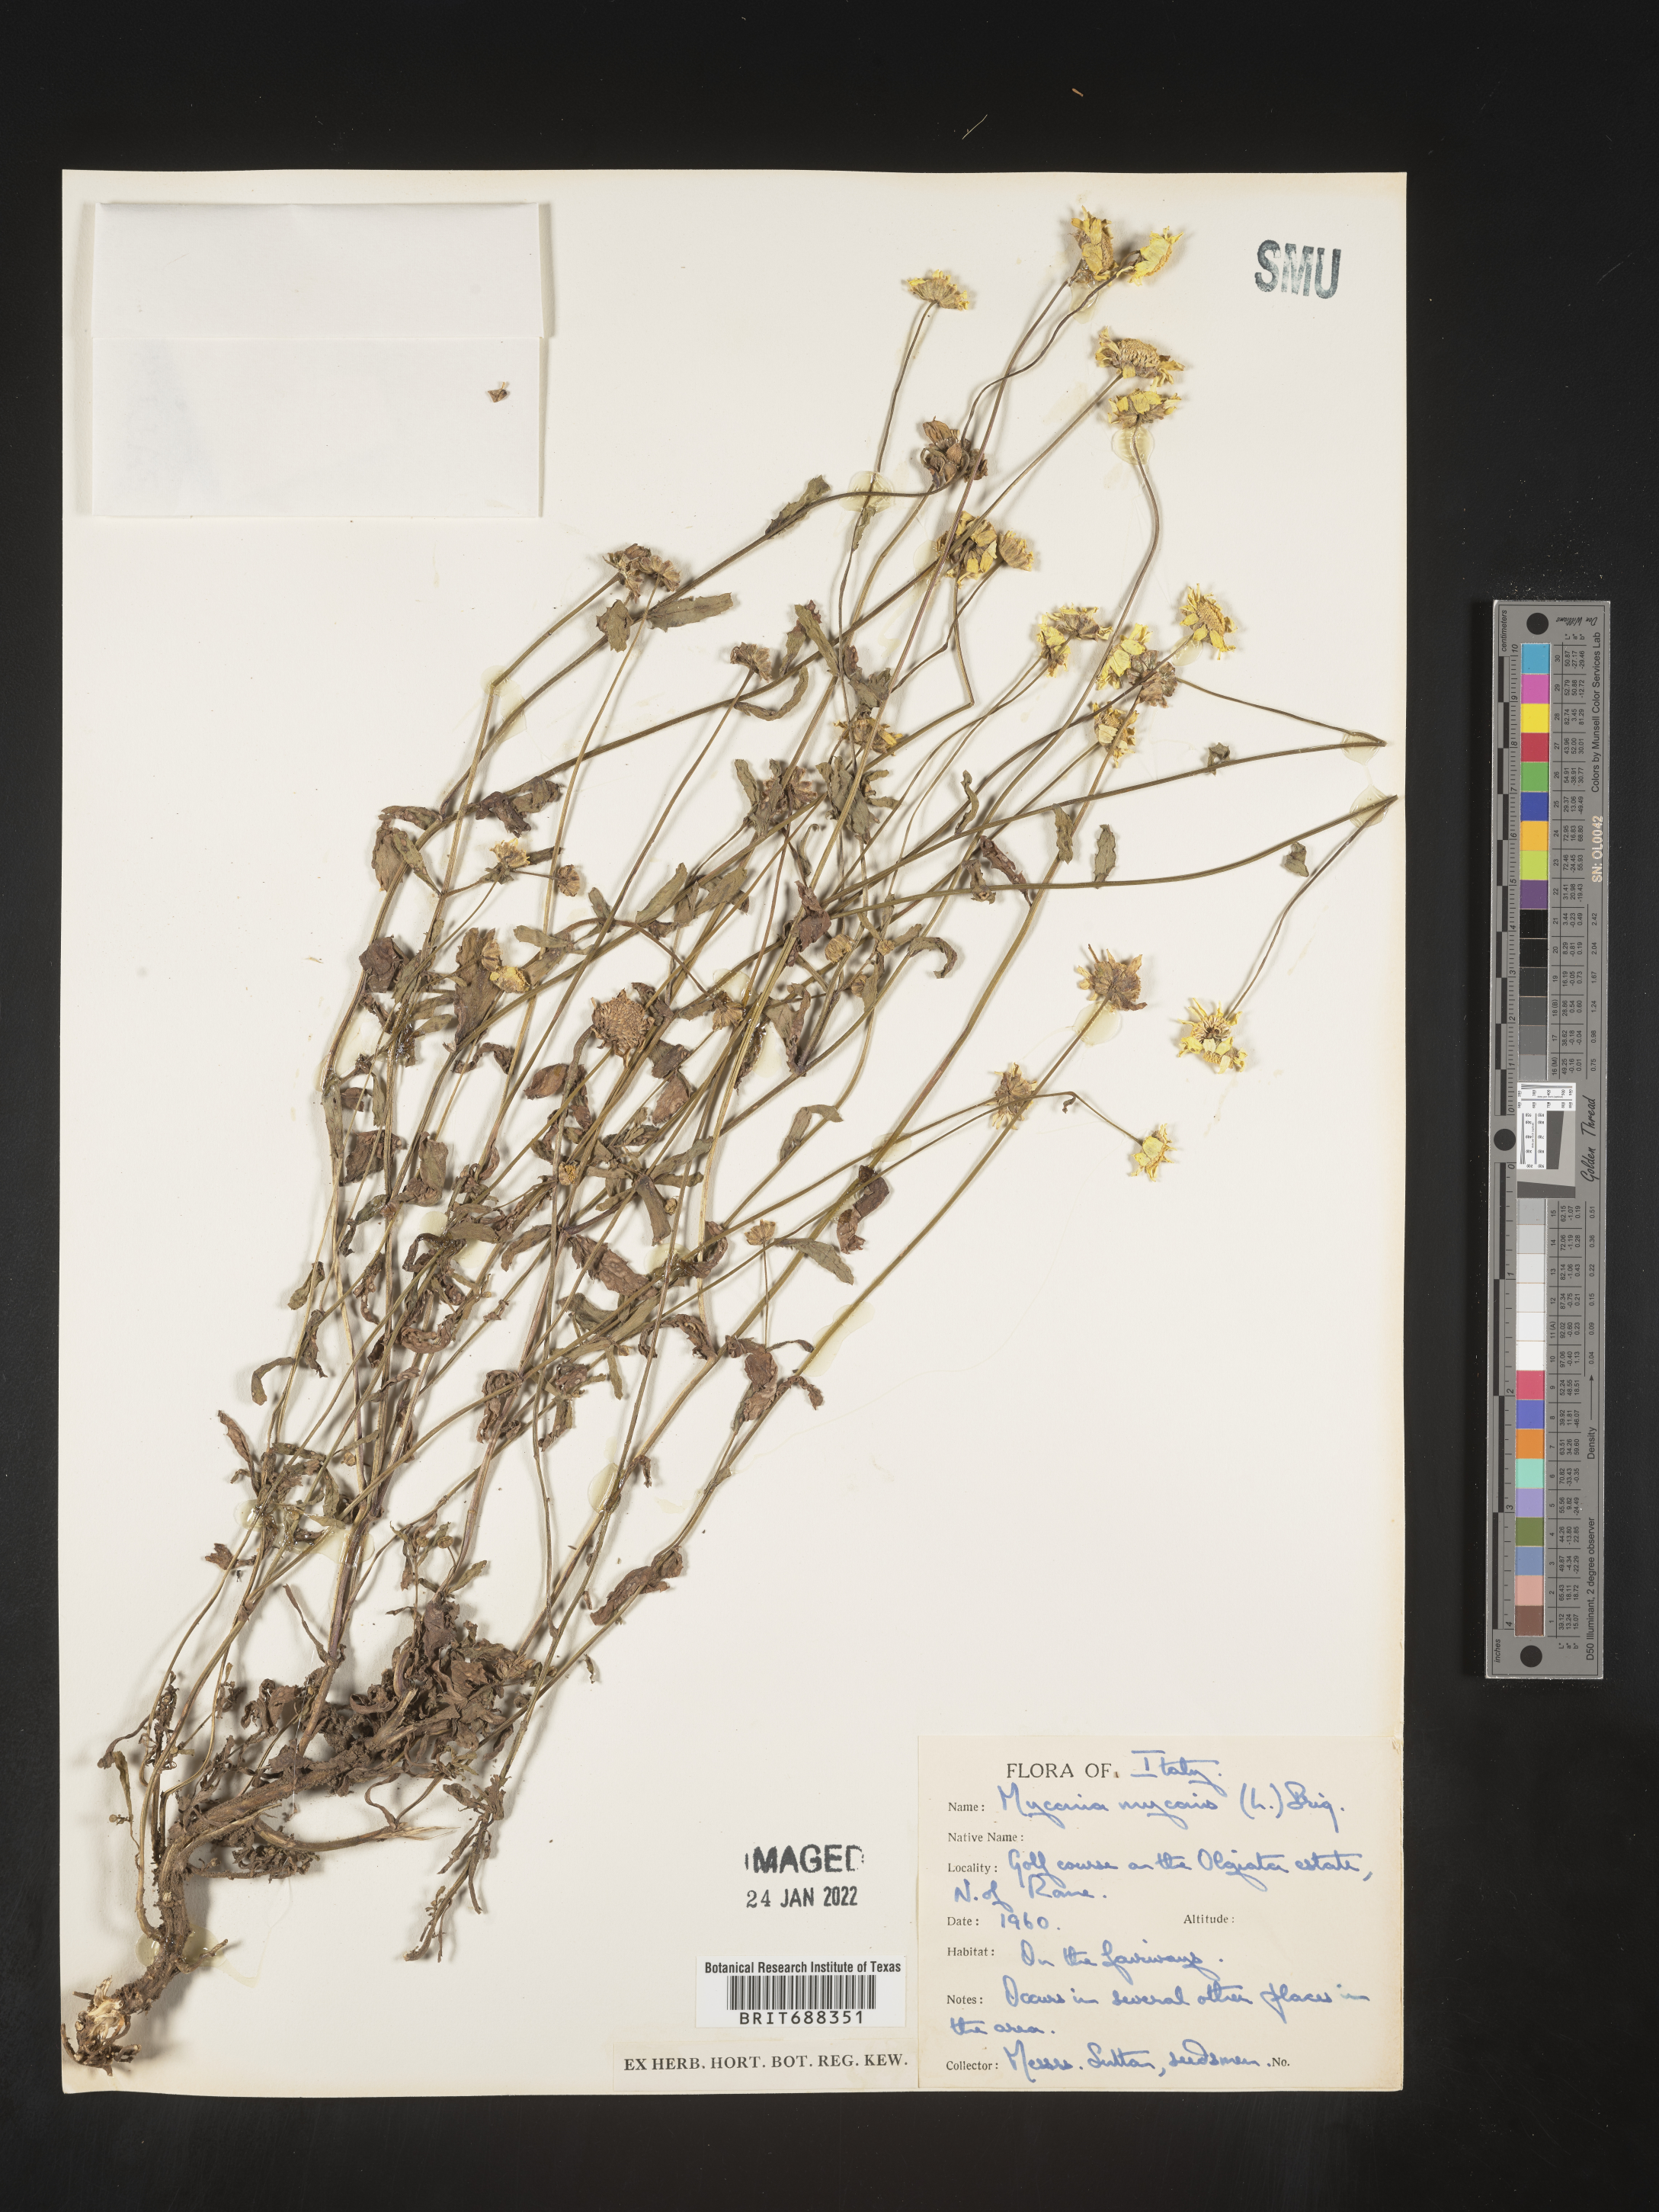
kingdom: Plantae
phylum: Tracheophyta
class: Magnoliopsida
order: Asterales
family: Asteraceae
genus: Chrysanthemum
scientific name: Chrysanthemum
